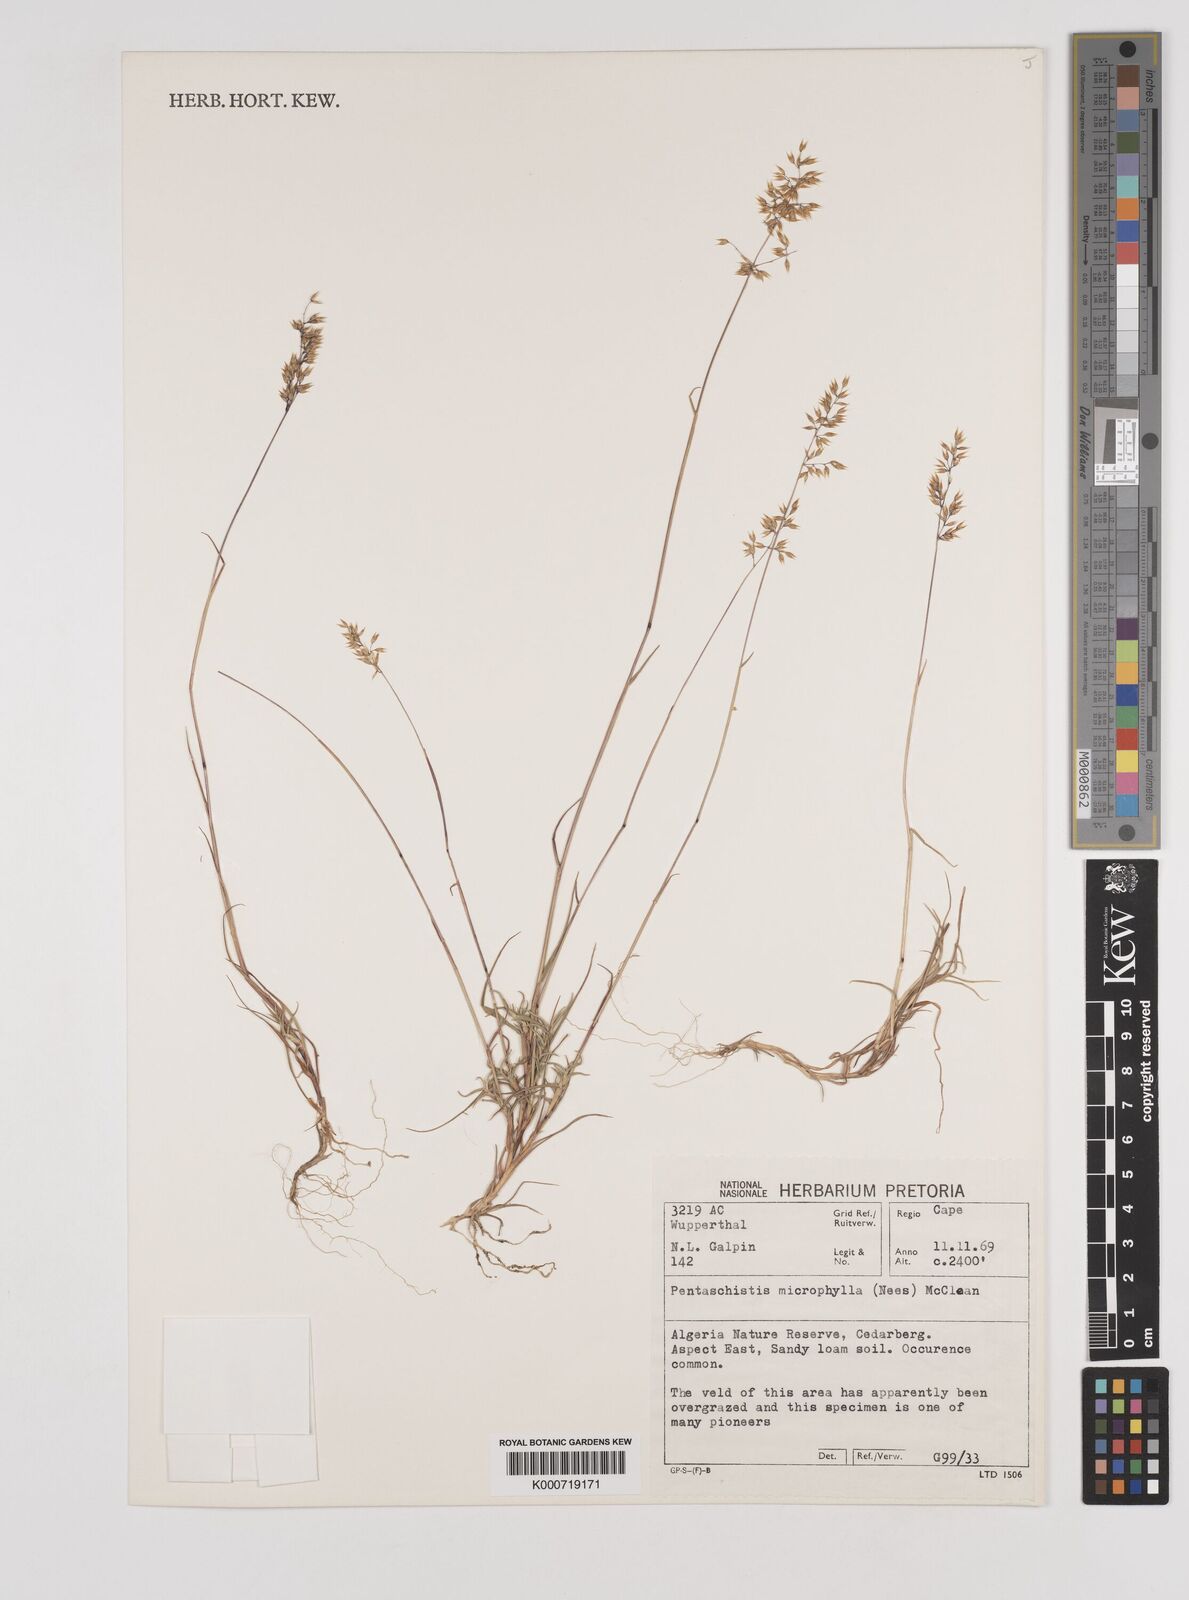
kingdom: Plantae
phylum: Tracheophyta
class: Liliopsida
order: Poales
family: Poaceae
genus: Pentameris
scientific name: Pentameris microphylla
